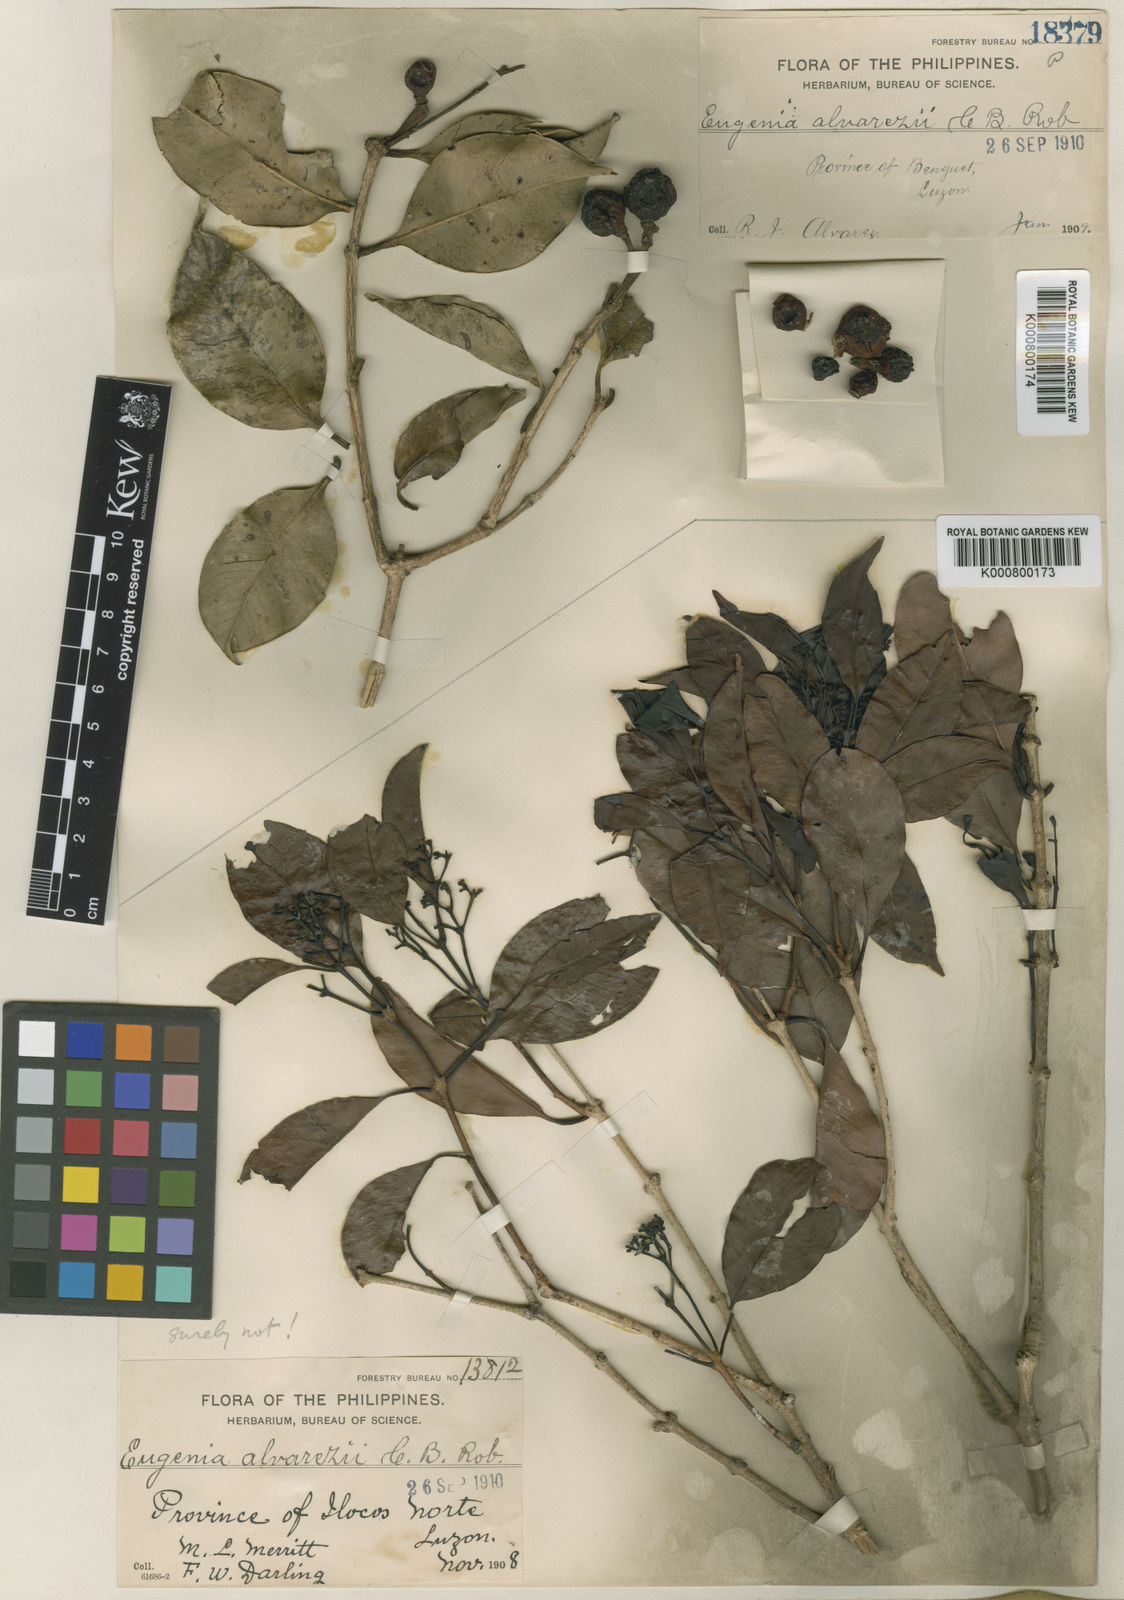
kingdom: Plantae
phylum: Tracheophyta
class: Magnoliopsida
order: Myrtales
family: Myrtaceae
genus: Syzygium
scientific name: Syzygium alvarezii
